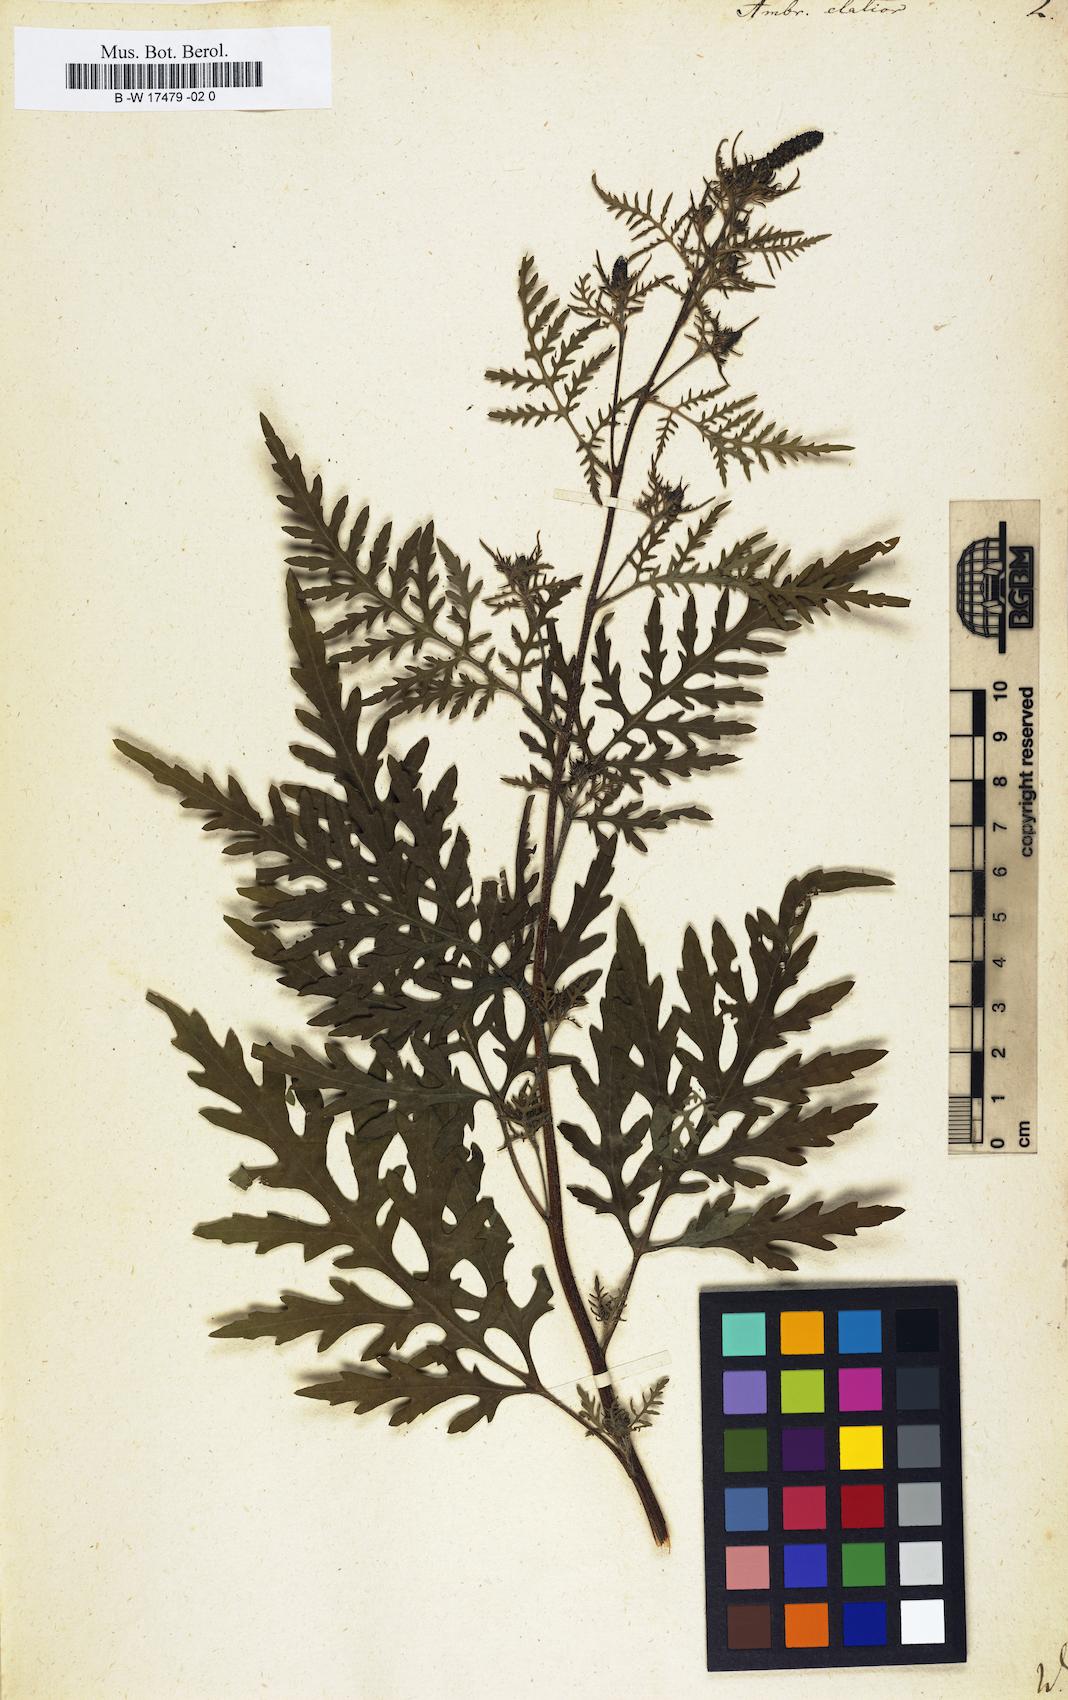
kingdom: Plantae
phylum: Tracheophyta
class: Magnoliopsida
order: Asterales
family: Asteraceae
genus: Ambrosia
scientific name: Ambrosia artemisiifolia
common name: Annual ragweed
